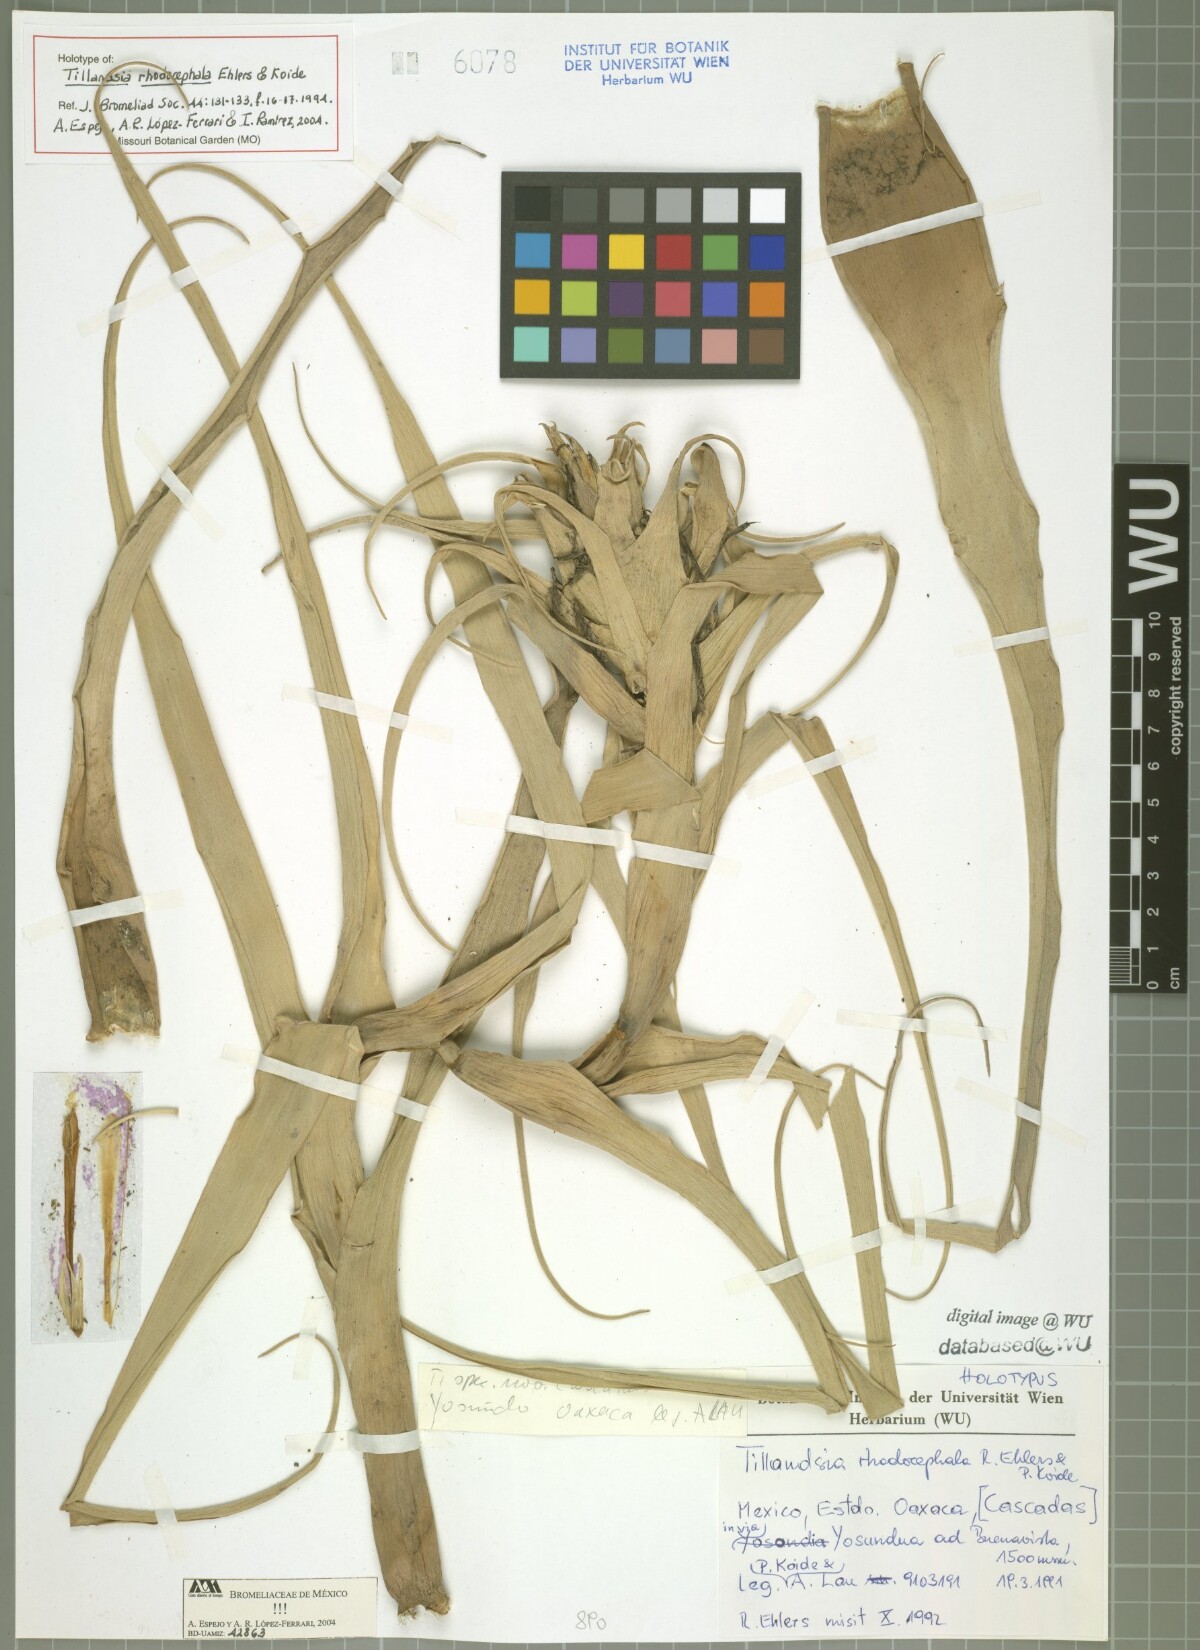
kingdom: Plantae
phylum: Tracheophyta
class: Liliopsida
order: Poales
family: Bromeliaceae
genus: Tillandsia
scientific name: Tillandsia rhodocephala
